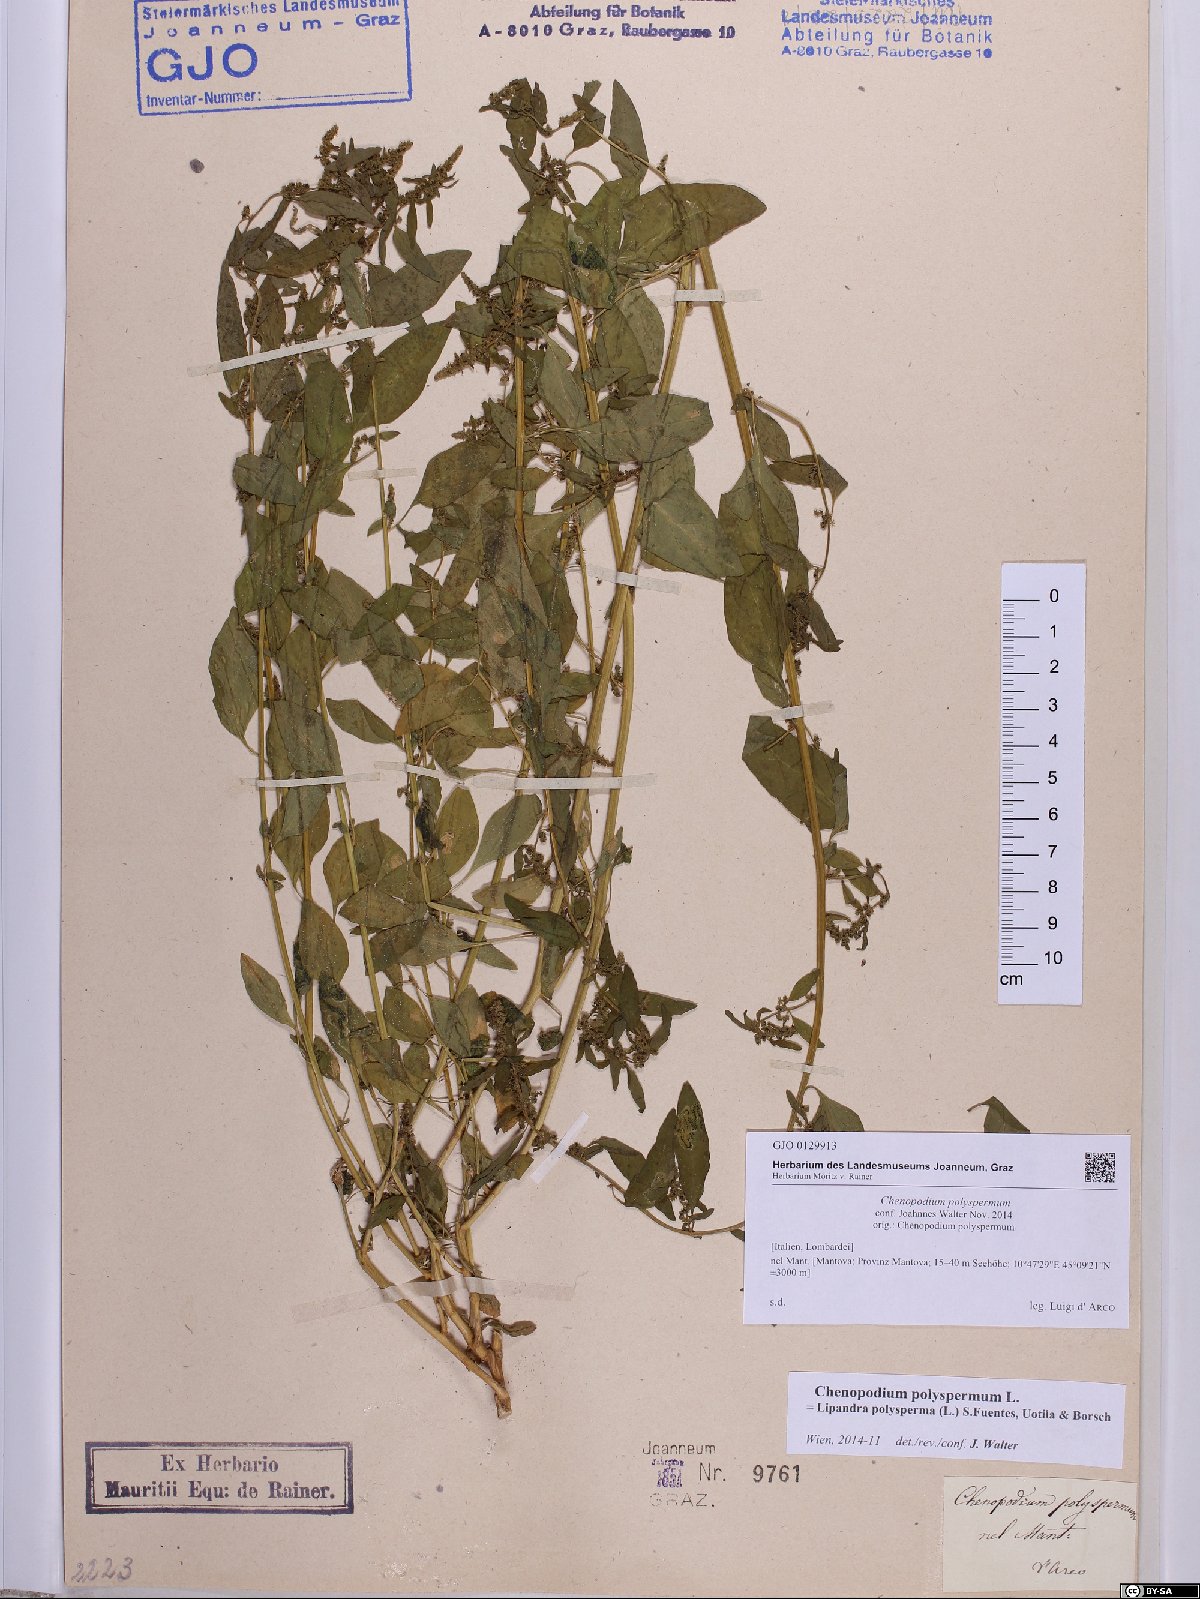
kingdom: Plantae
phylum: Tracheophyta
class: Magnoliopsida
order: Caryophyllales
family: Amaranthaceae
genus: Lipandra
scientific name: Lipandra polysperma
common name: Many-seed goosefoot
